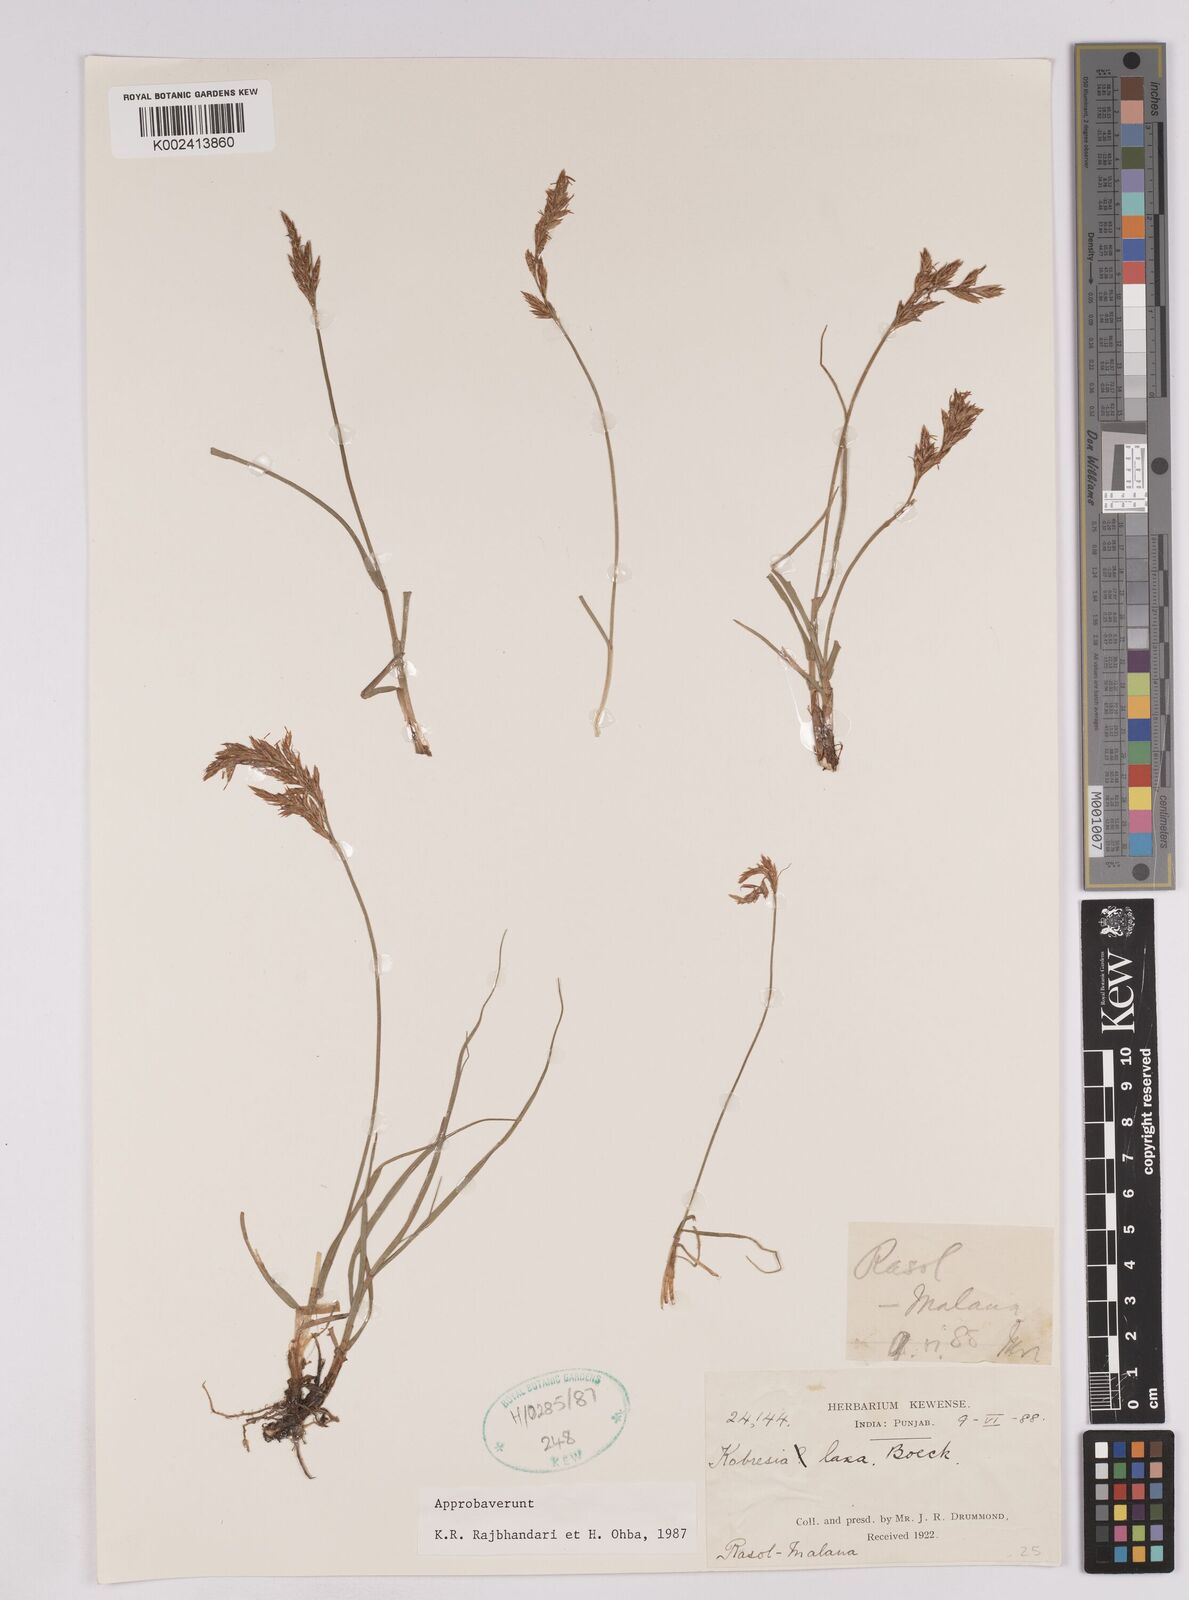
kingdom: Plantae
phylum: Tracheophyta
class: Liliopsida
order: Poales
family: Cyperaceae
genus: Carex
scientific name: Carex pseudolaxa
